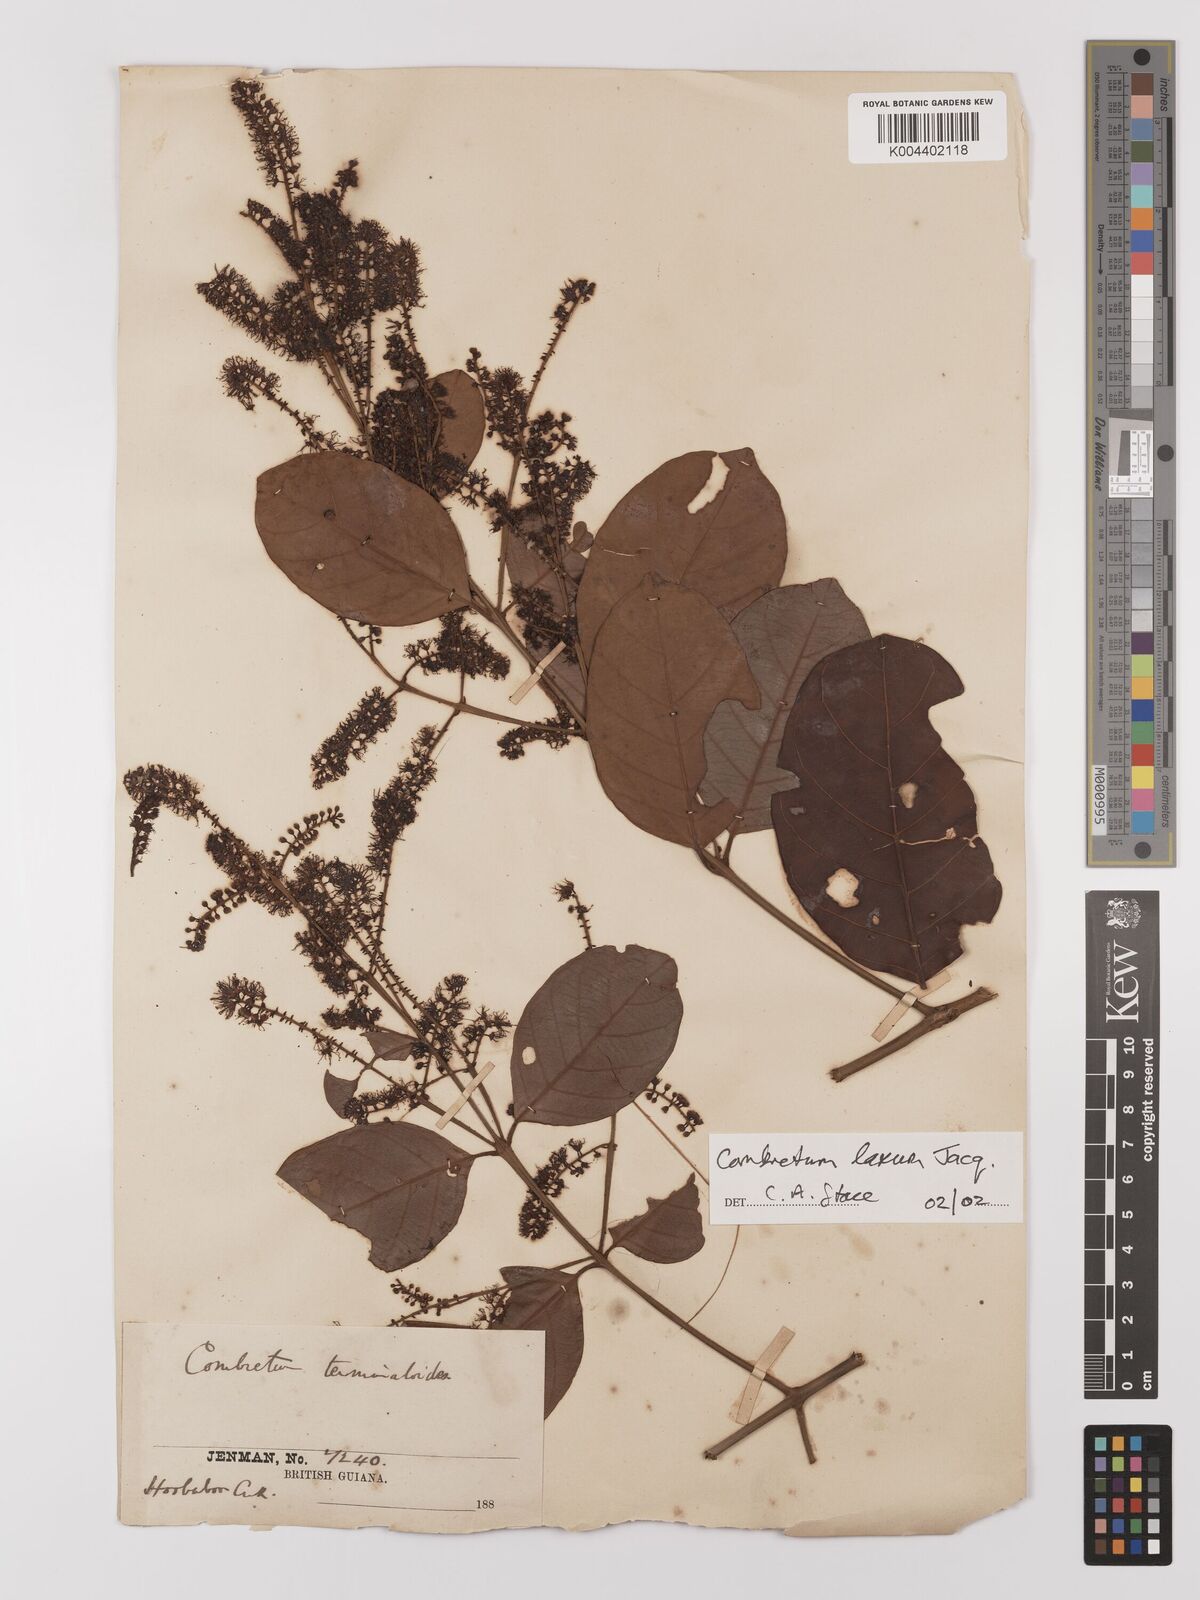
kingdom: Plantae
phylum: Tracheophyta
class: Magnoliopsida
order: Myrtales
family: Combretaceae
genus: Combretum
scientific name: Combretum
